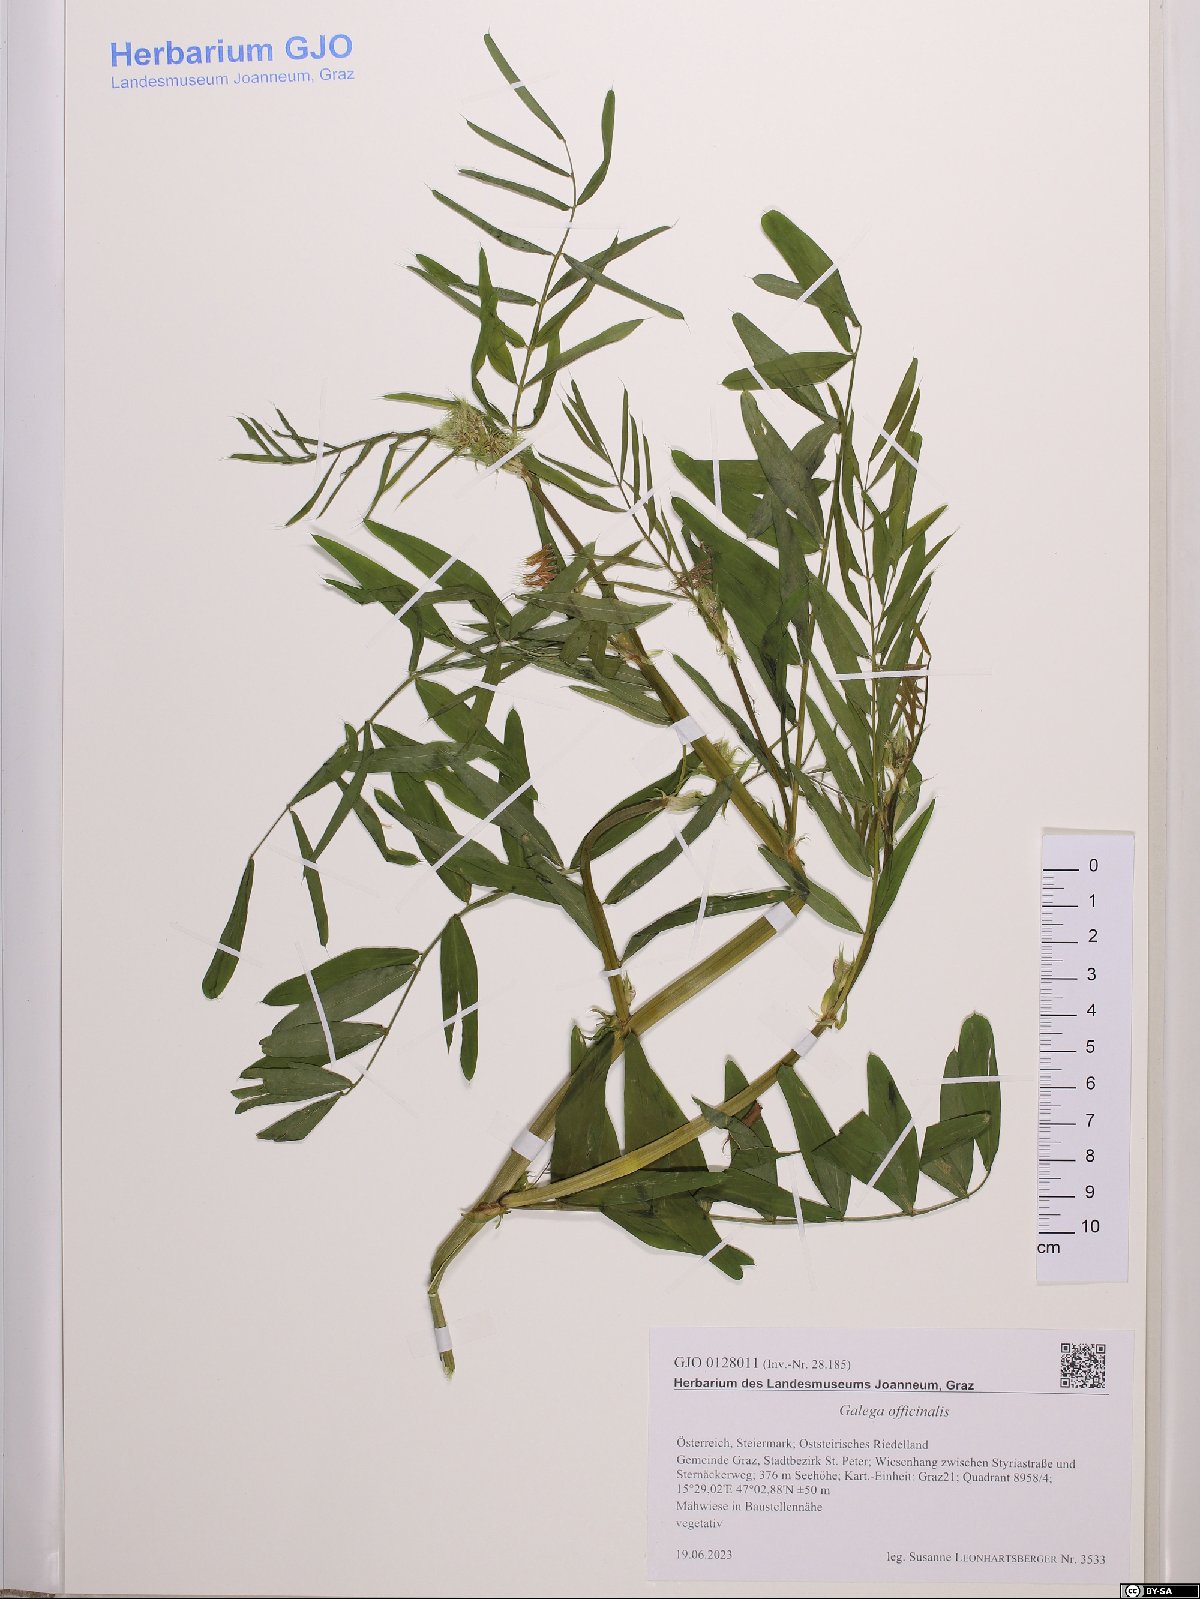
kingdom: Plantae
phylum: Tracheophyta
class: Magnoliopsida
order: Fabales
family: Fabaceae
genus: Galega
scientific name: Galega officinalis
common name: Goat's-rue
